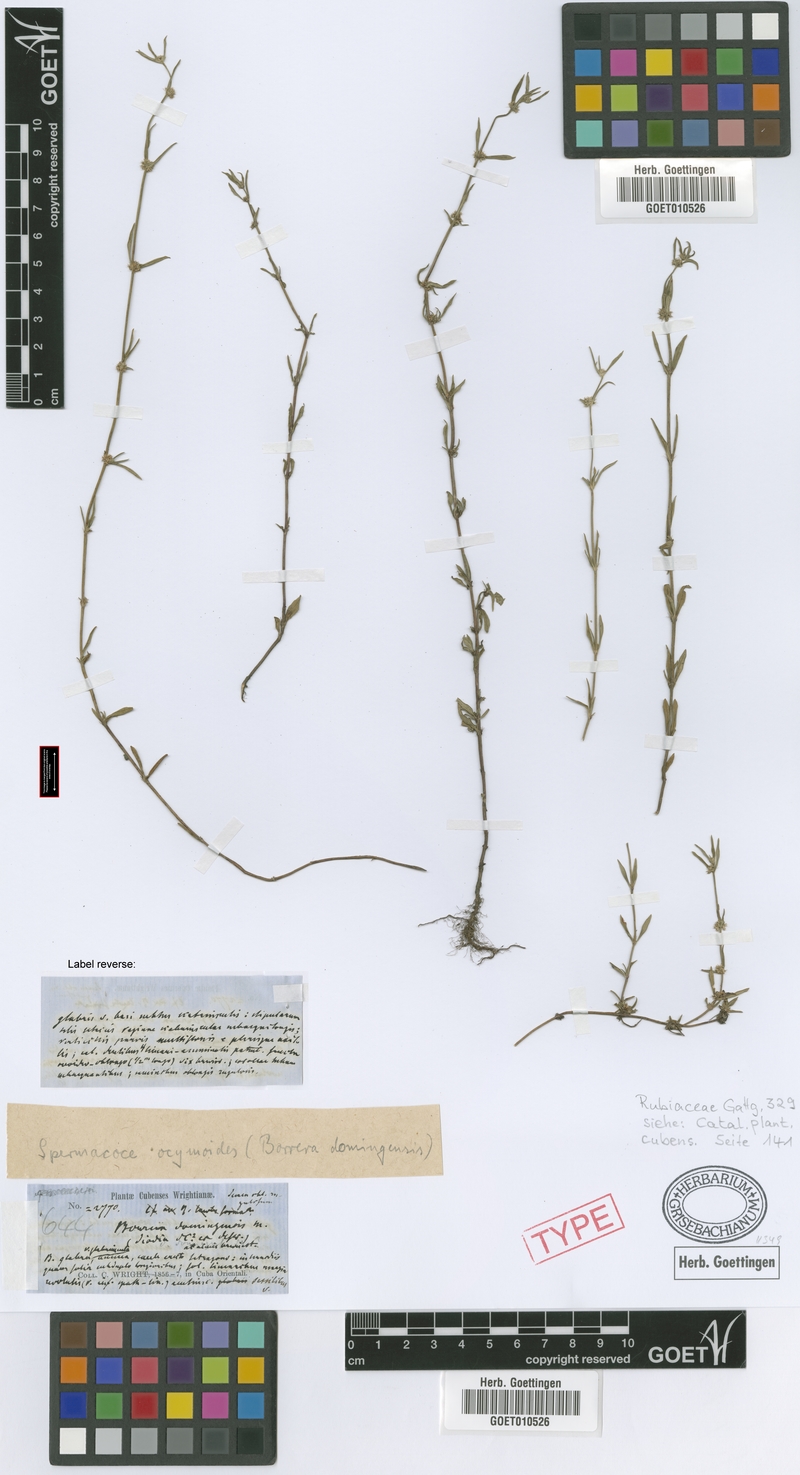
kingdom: Plantae
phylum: Tracheophyta
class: Magnoliopsida
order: Gentianales
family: Rubiaceae
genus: Spermacoce
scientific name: Spermacoce prostrata
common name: Prostrate false buttonweed
